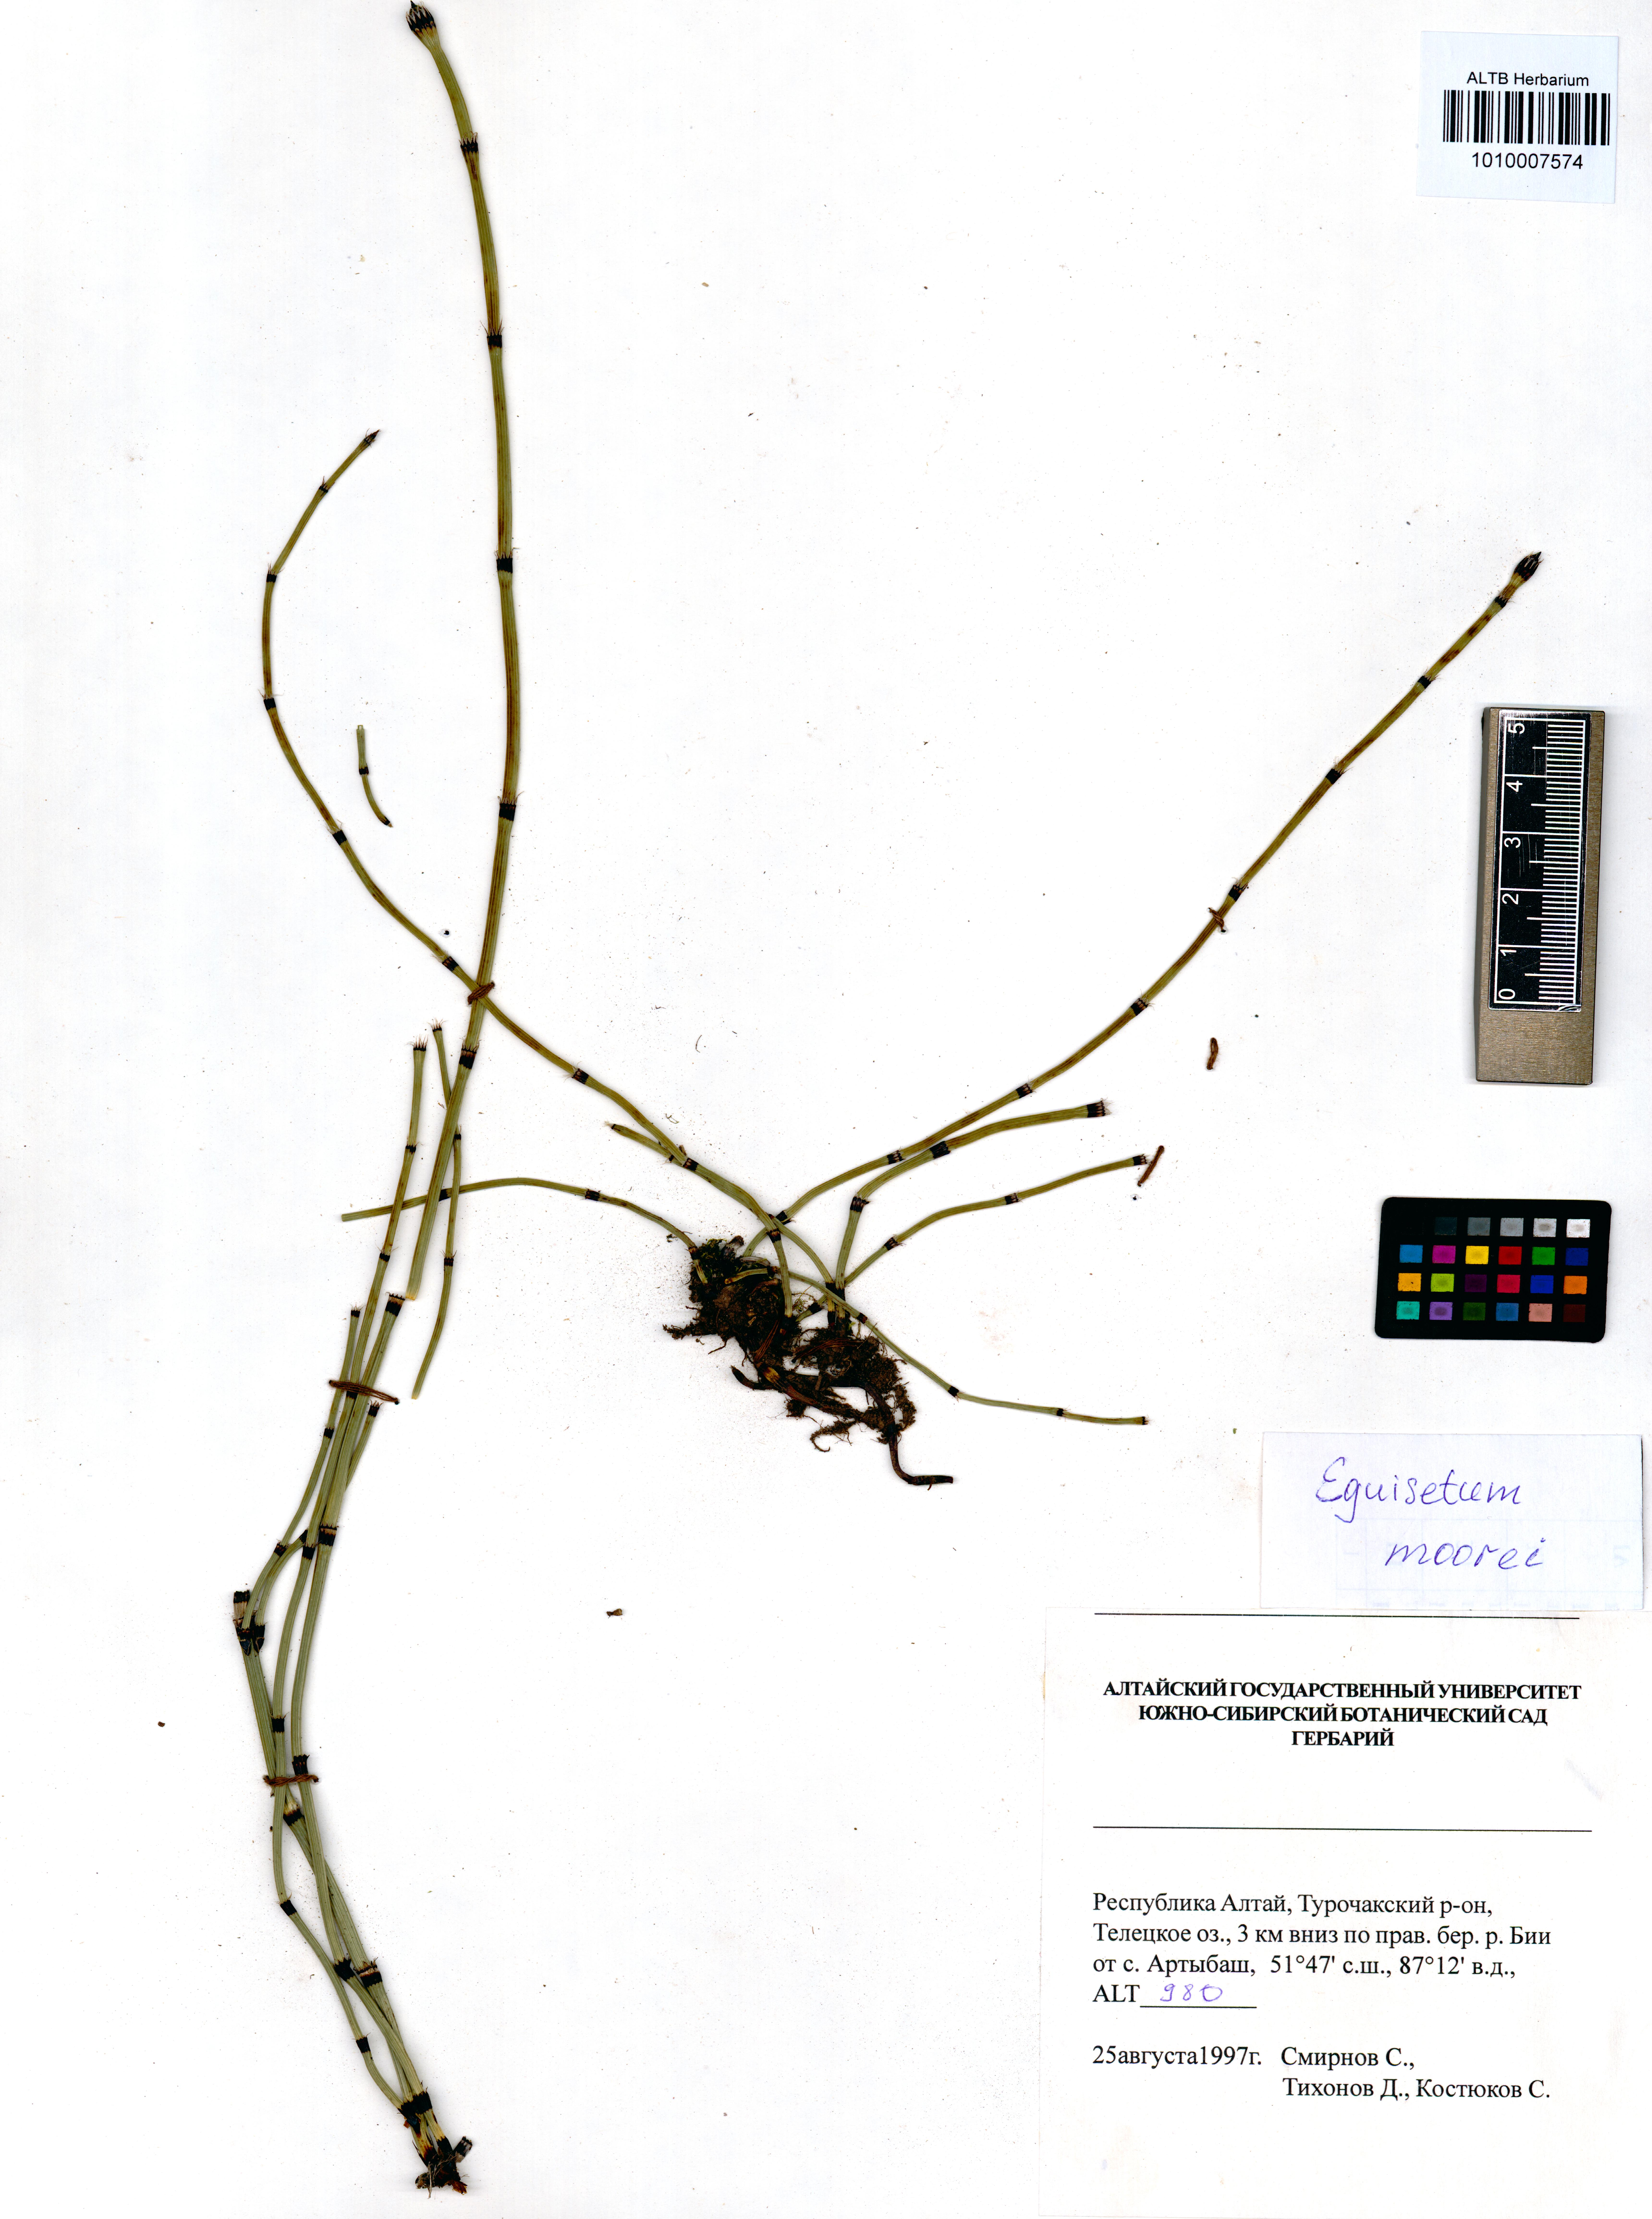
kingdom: Plantae
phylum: Tracheophyta
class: Polypodiopsida
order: Equisetales
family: Equisetaceae
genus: Equisetum
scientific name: Equisetum moorei
